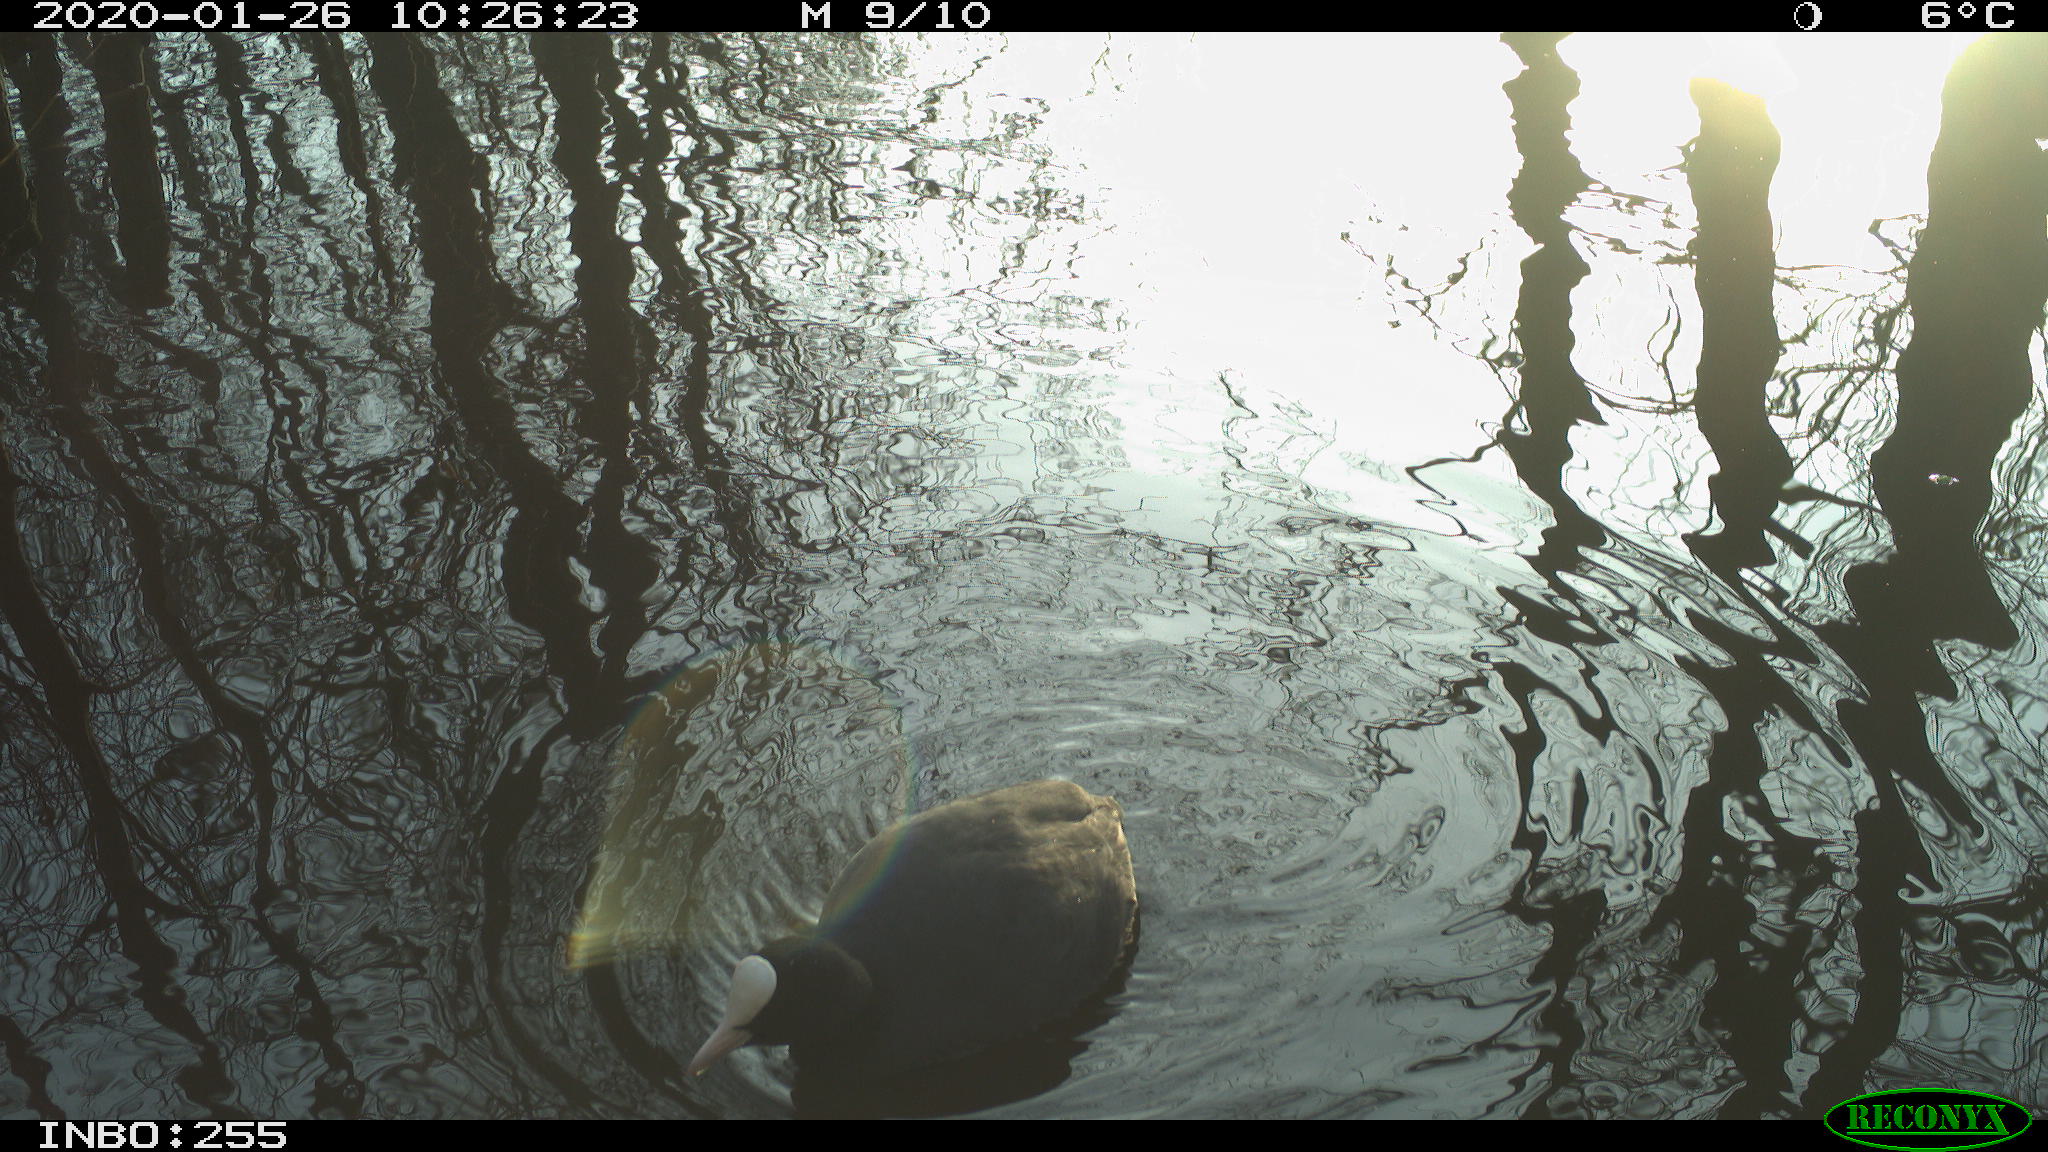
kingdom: Animalia
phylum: Chordata
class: Aves
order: Gruiformes
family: Rallidae
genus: Fulica
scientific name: Fulica atra
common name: Eurasian coot
